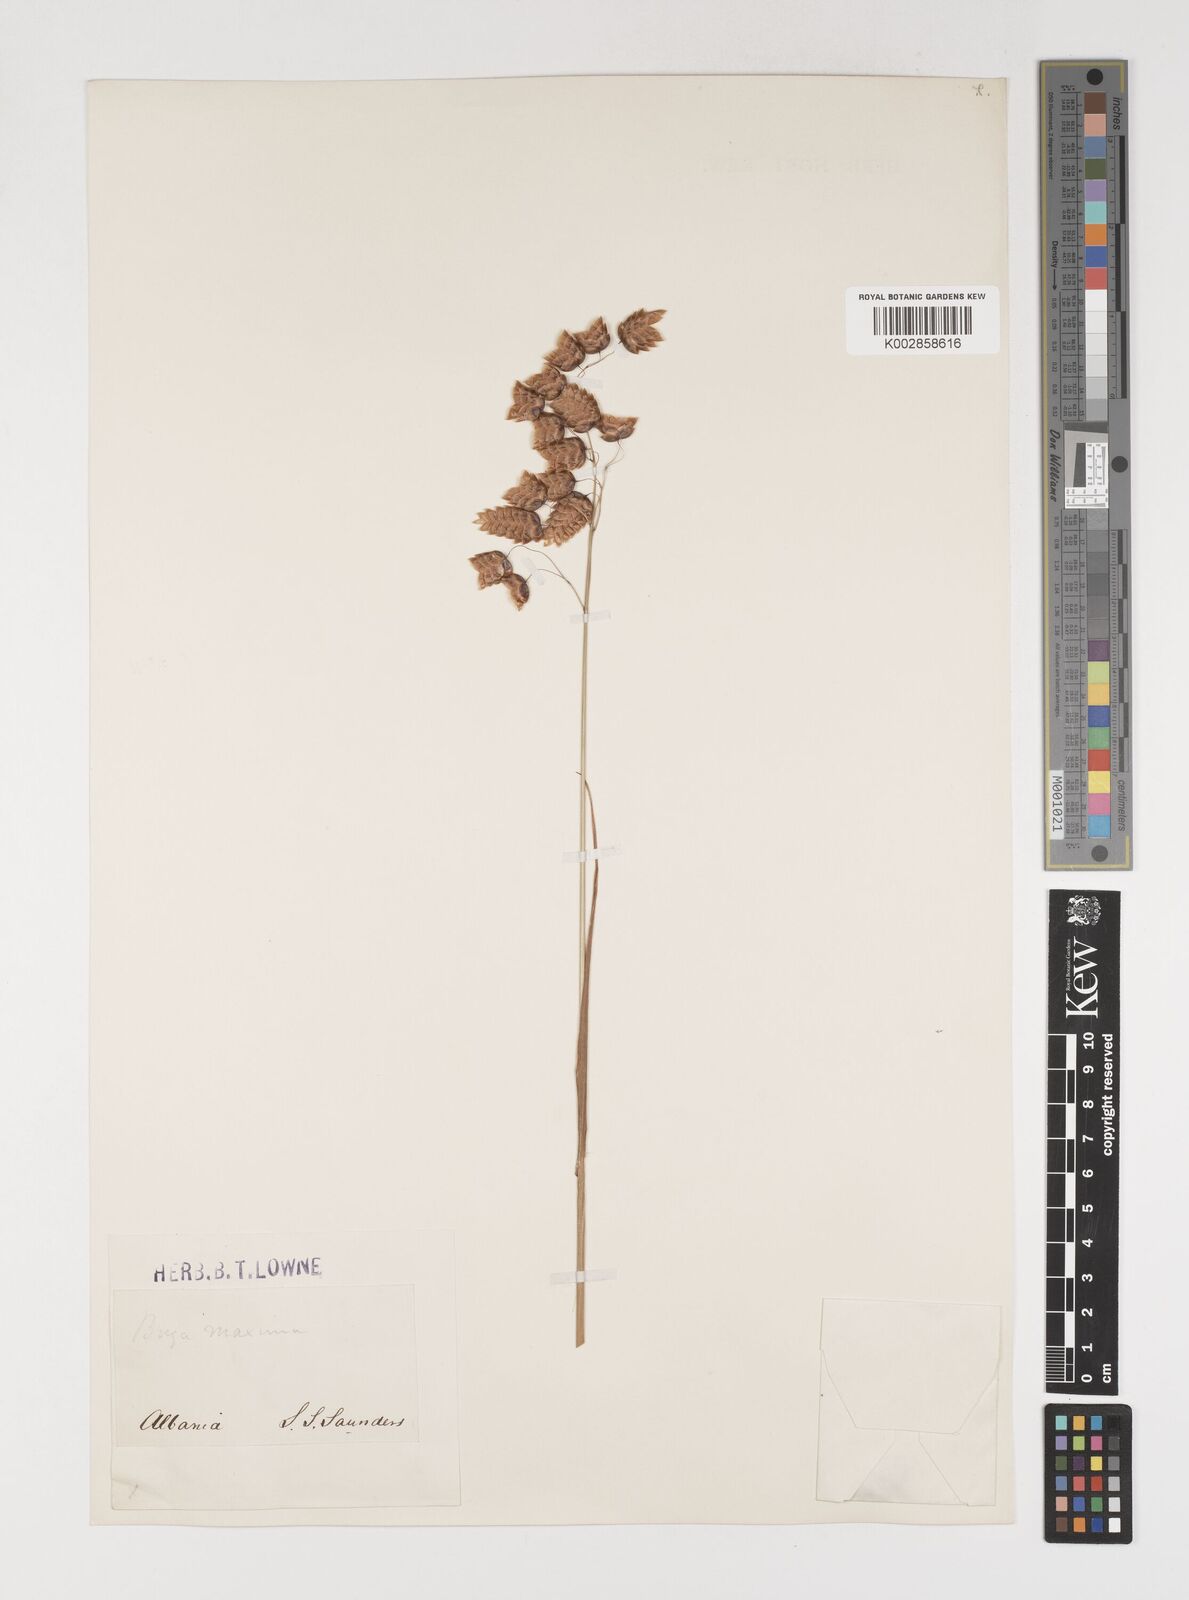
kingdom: Plantae
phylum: Tracheophyta
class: Liliopsida
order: Poales
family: Poaceae
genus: Briza
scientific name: Briza maxima
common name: Big quakinggrass
